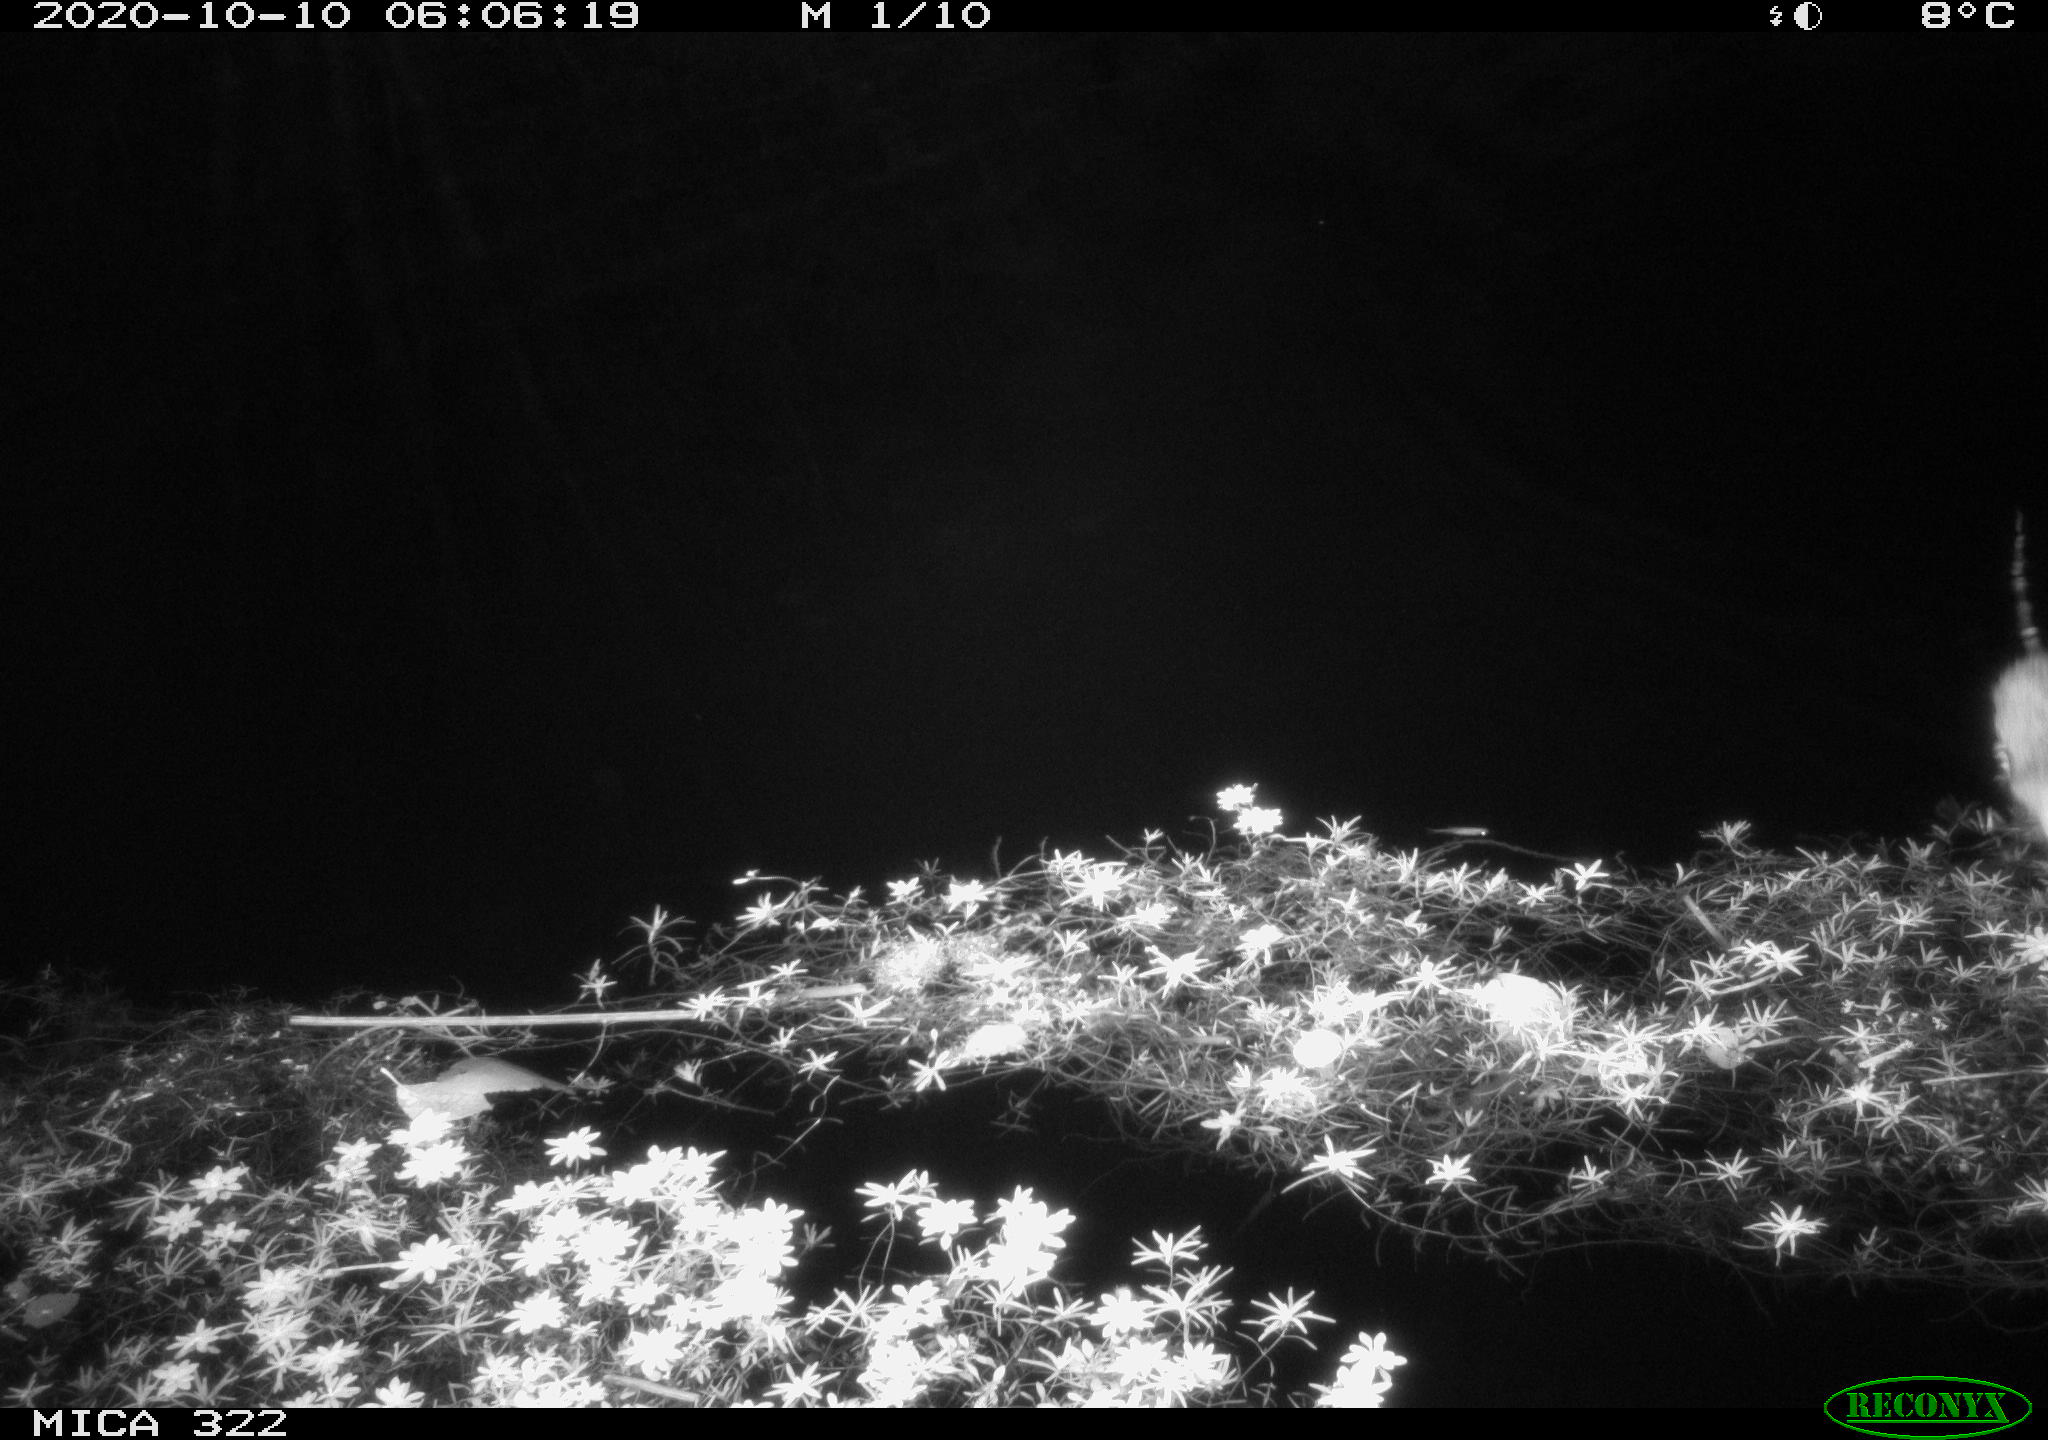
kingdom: Animalia
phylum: Chordata
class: Mammalia
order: Rodentia
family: Muridae
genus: Rattus
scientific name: Rattus norvegicus
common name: Brown rat
